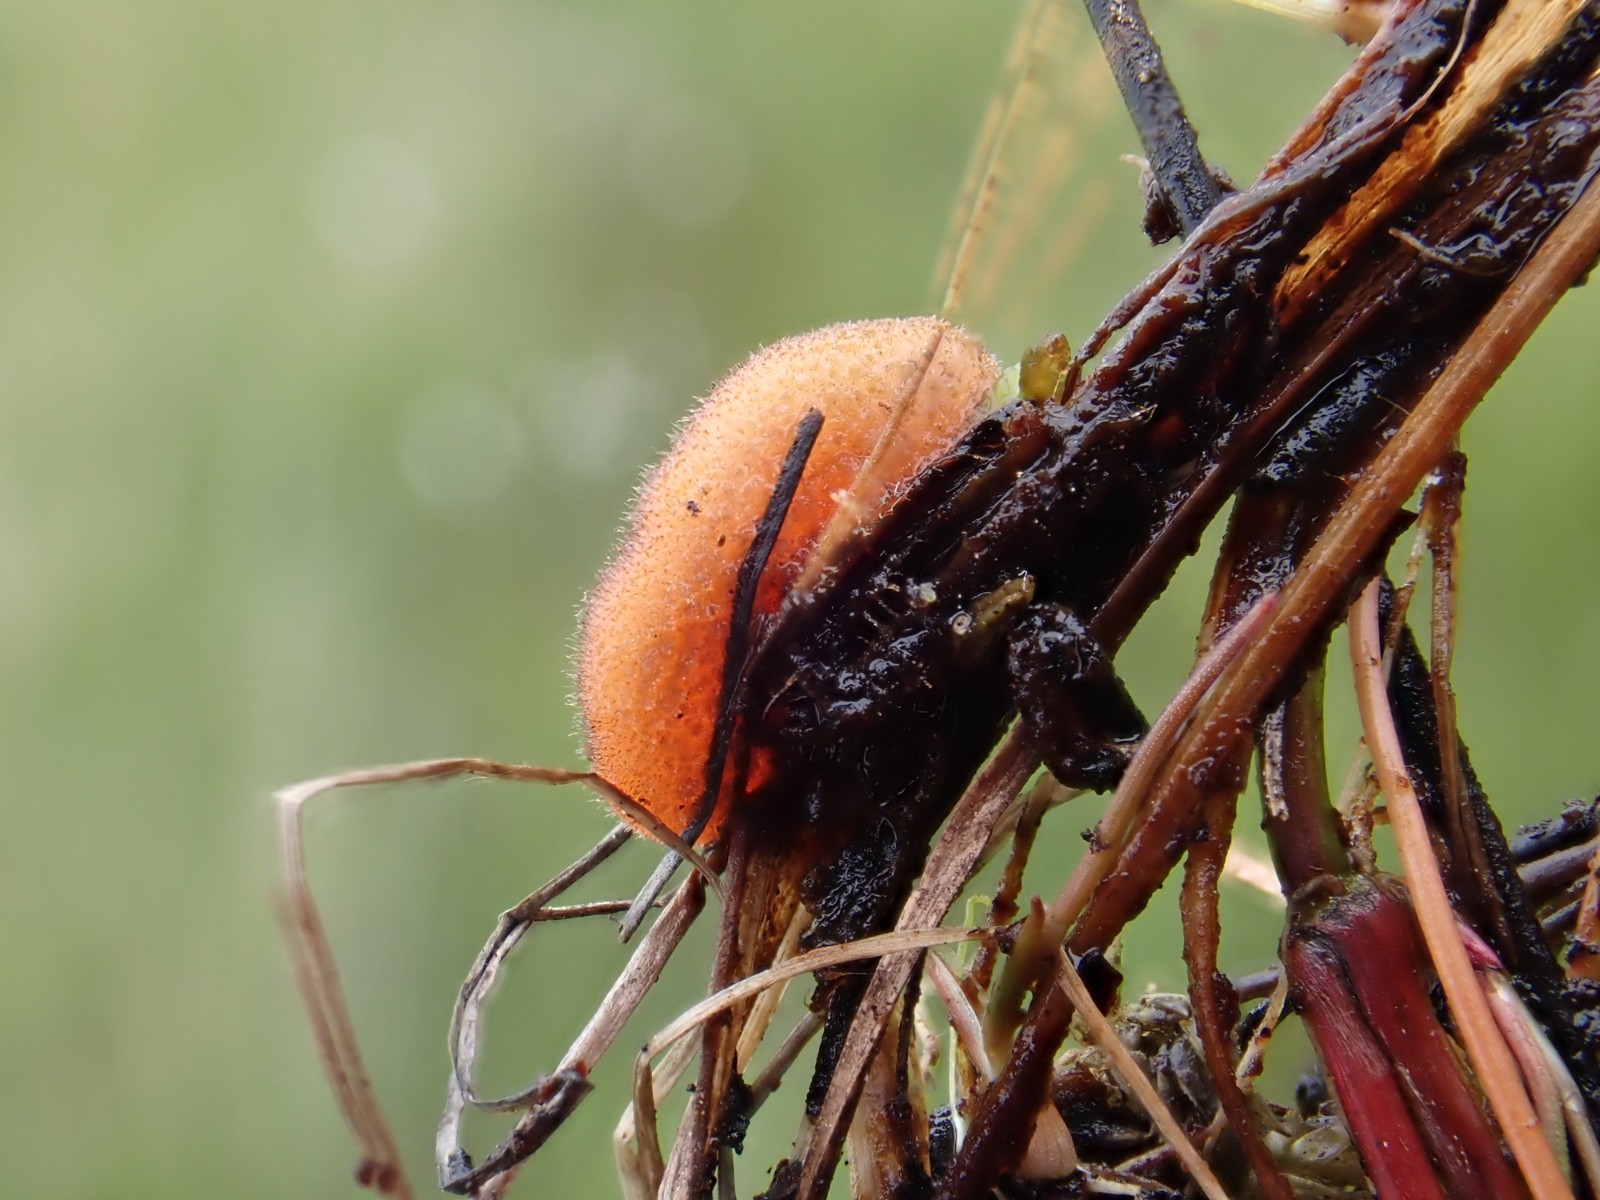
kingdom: Fungi
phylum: Ascomycota
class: Pezizomycetes
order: Pezizales
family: Pyronemataceae
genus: Scutellinia
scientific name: Scutellinia
